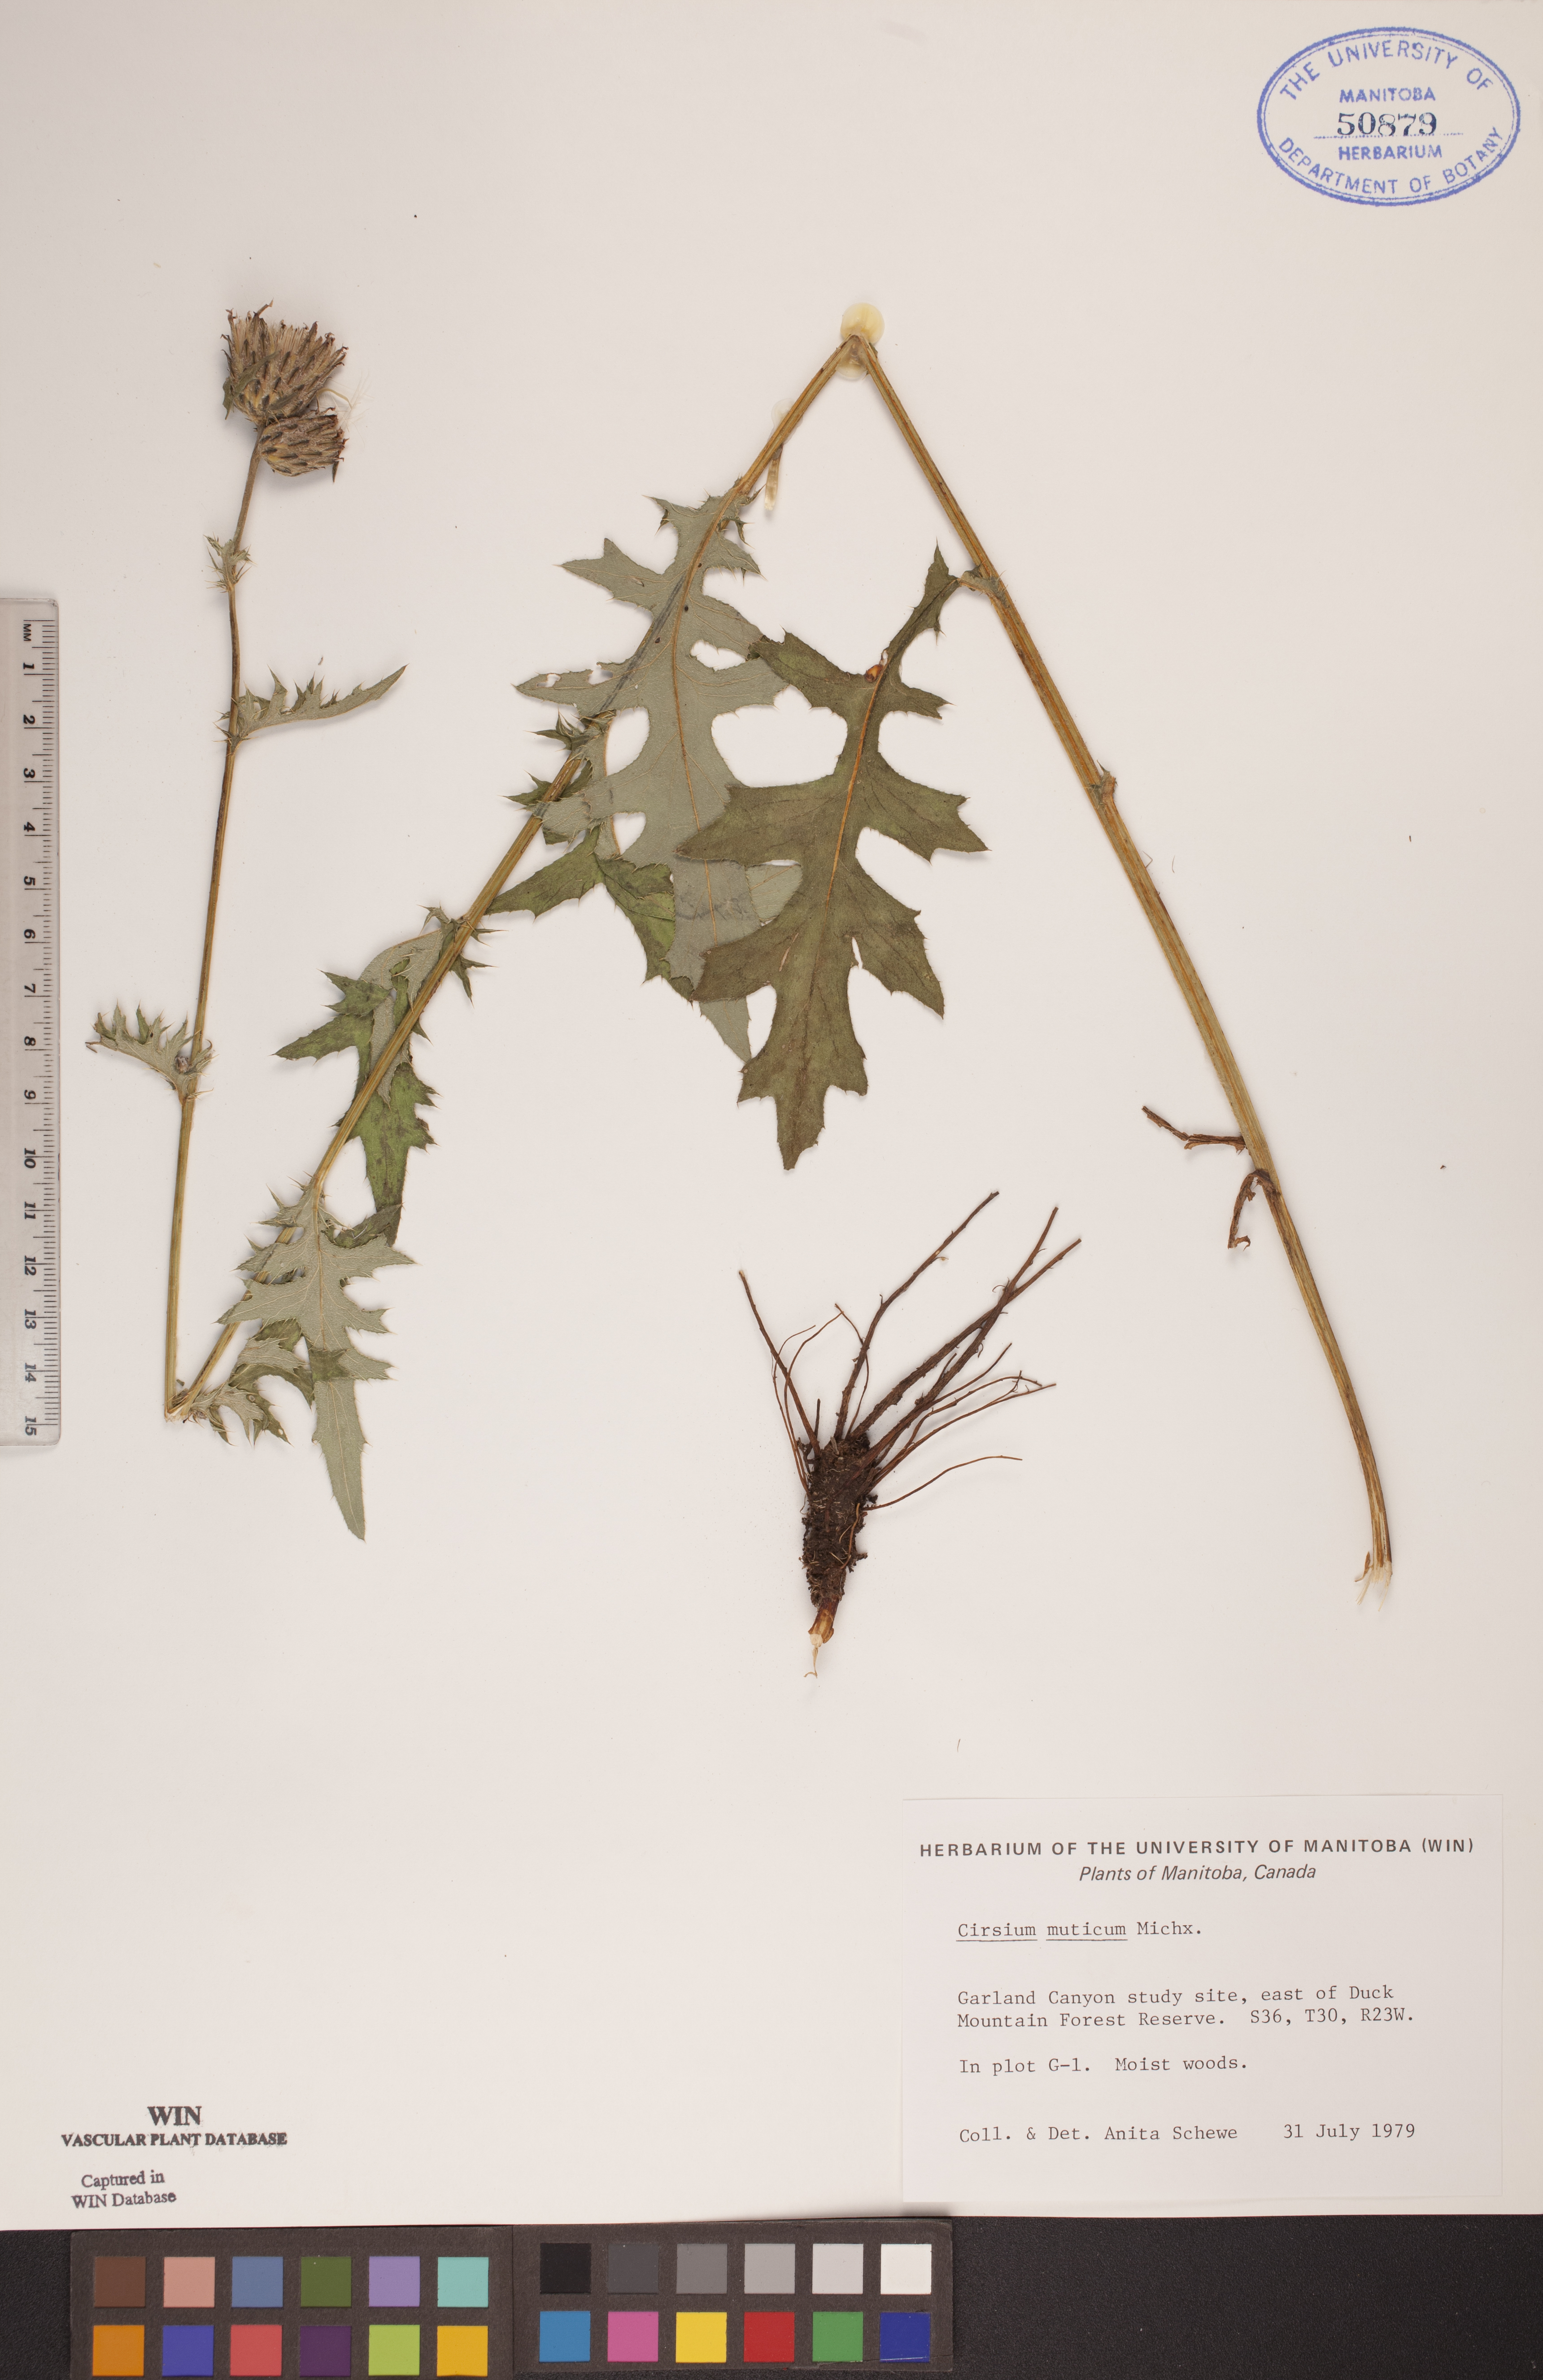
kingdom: Plantae
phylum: Tracheophyta
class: Magnoliopsida
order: Asterales
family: Asteraceae
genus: Cirsium
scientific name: Cirsium muticum
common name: Dunce-nettle
